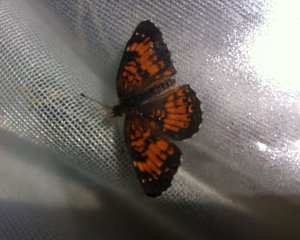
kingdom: Animalia
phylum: Arthropoda
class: Insecta
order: Lepidoptera
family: Nymphalidae
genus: Chlosyne
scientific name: Chlosyne harrisii
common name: Harris's Checkerspot
